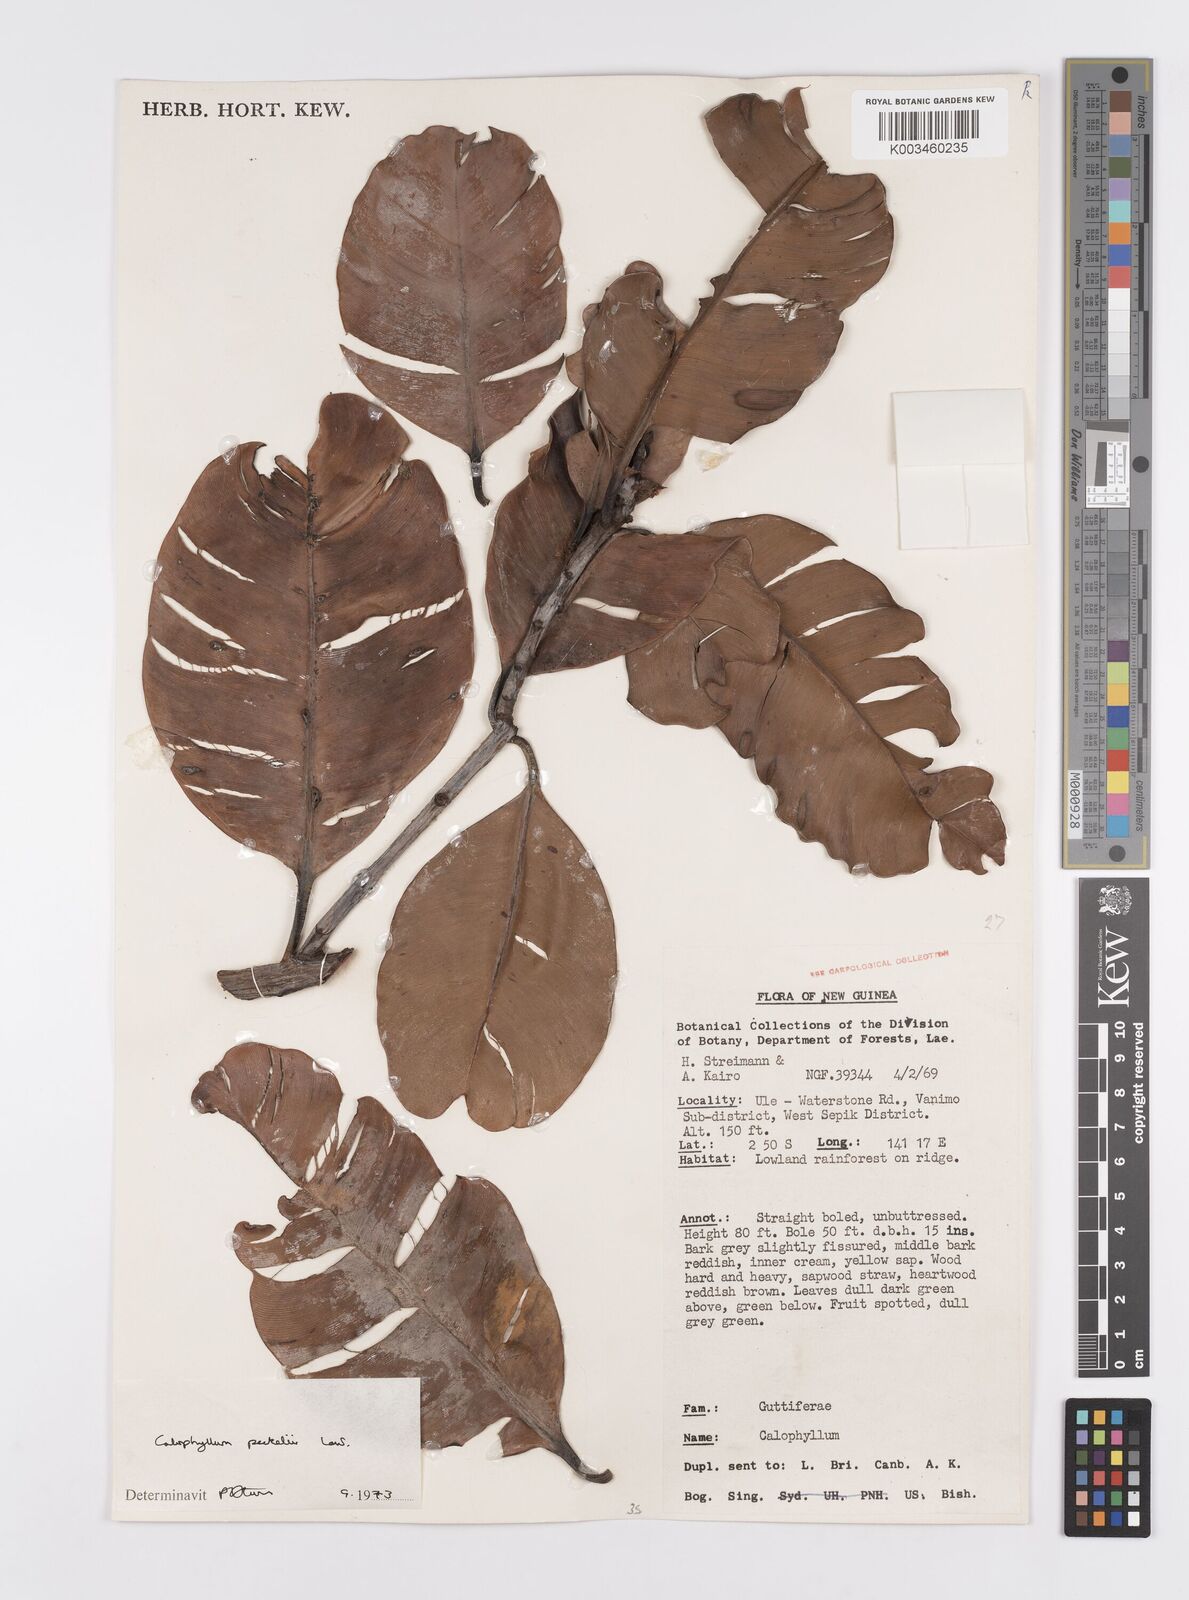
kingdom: Plantae
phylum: Tracheophyta
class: Magnoliopsida
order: Malpighiales
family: Calophyllaceae
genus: Calophyllum
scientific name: Calophyllum peekelii
